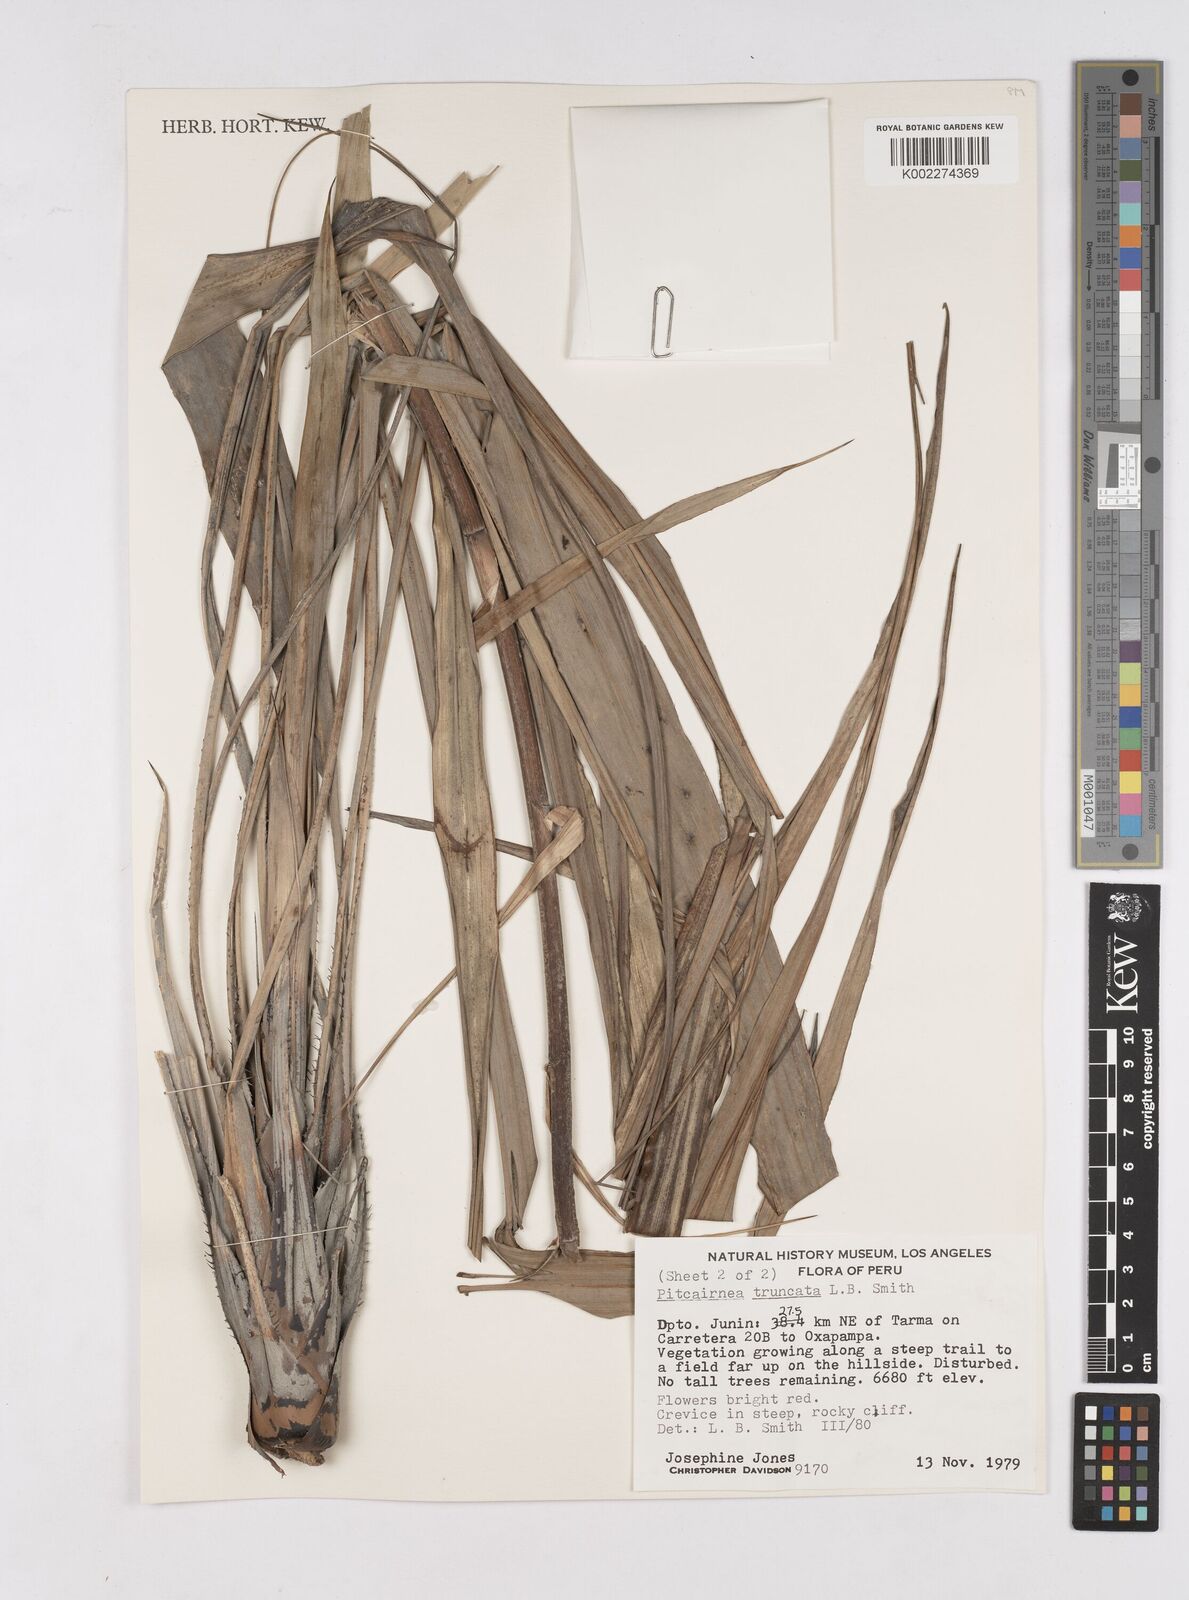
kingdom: Plantae
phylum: Tracheophyta
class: Liliopsida
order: Poales
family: Bromeliaceae
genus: Pitcairnia
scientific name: Pitcairnia truncata
